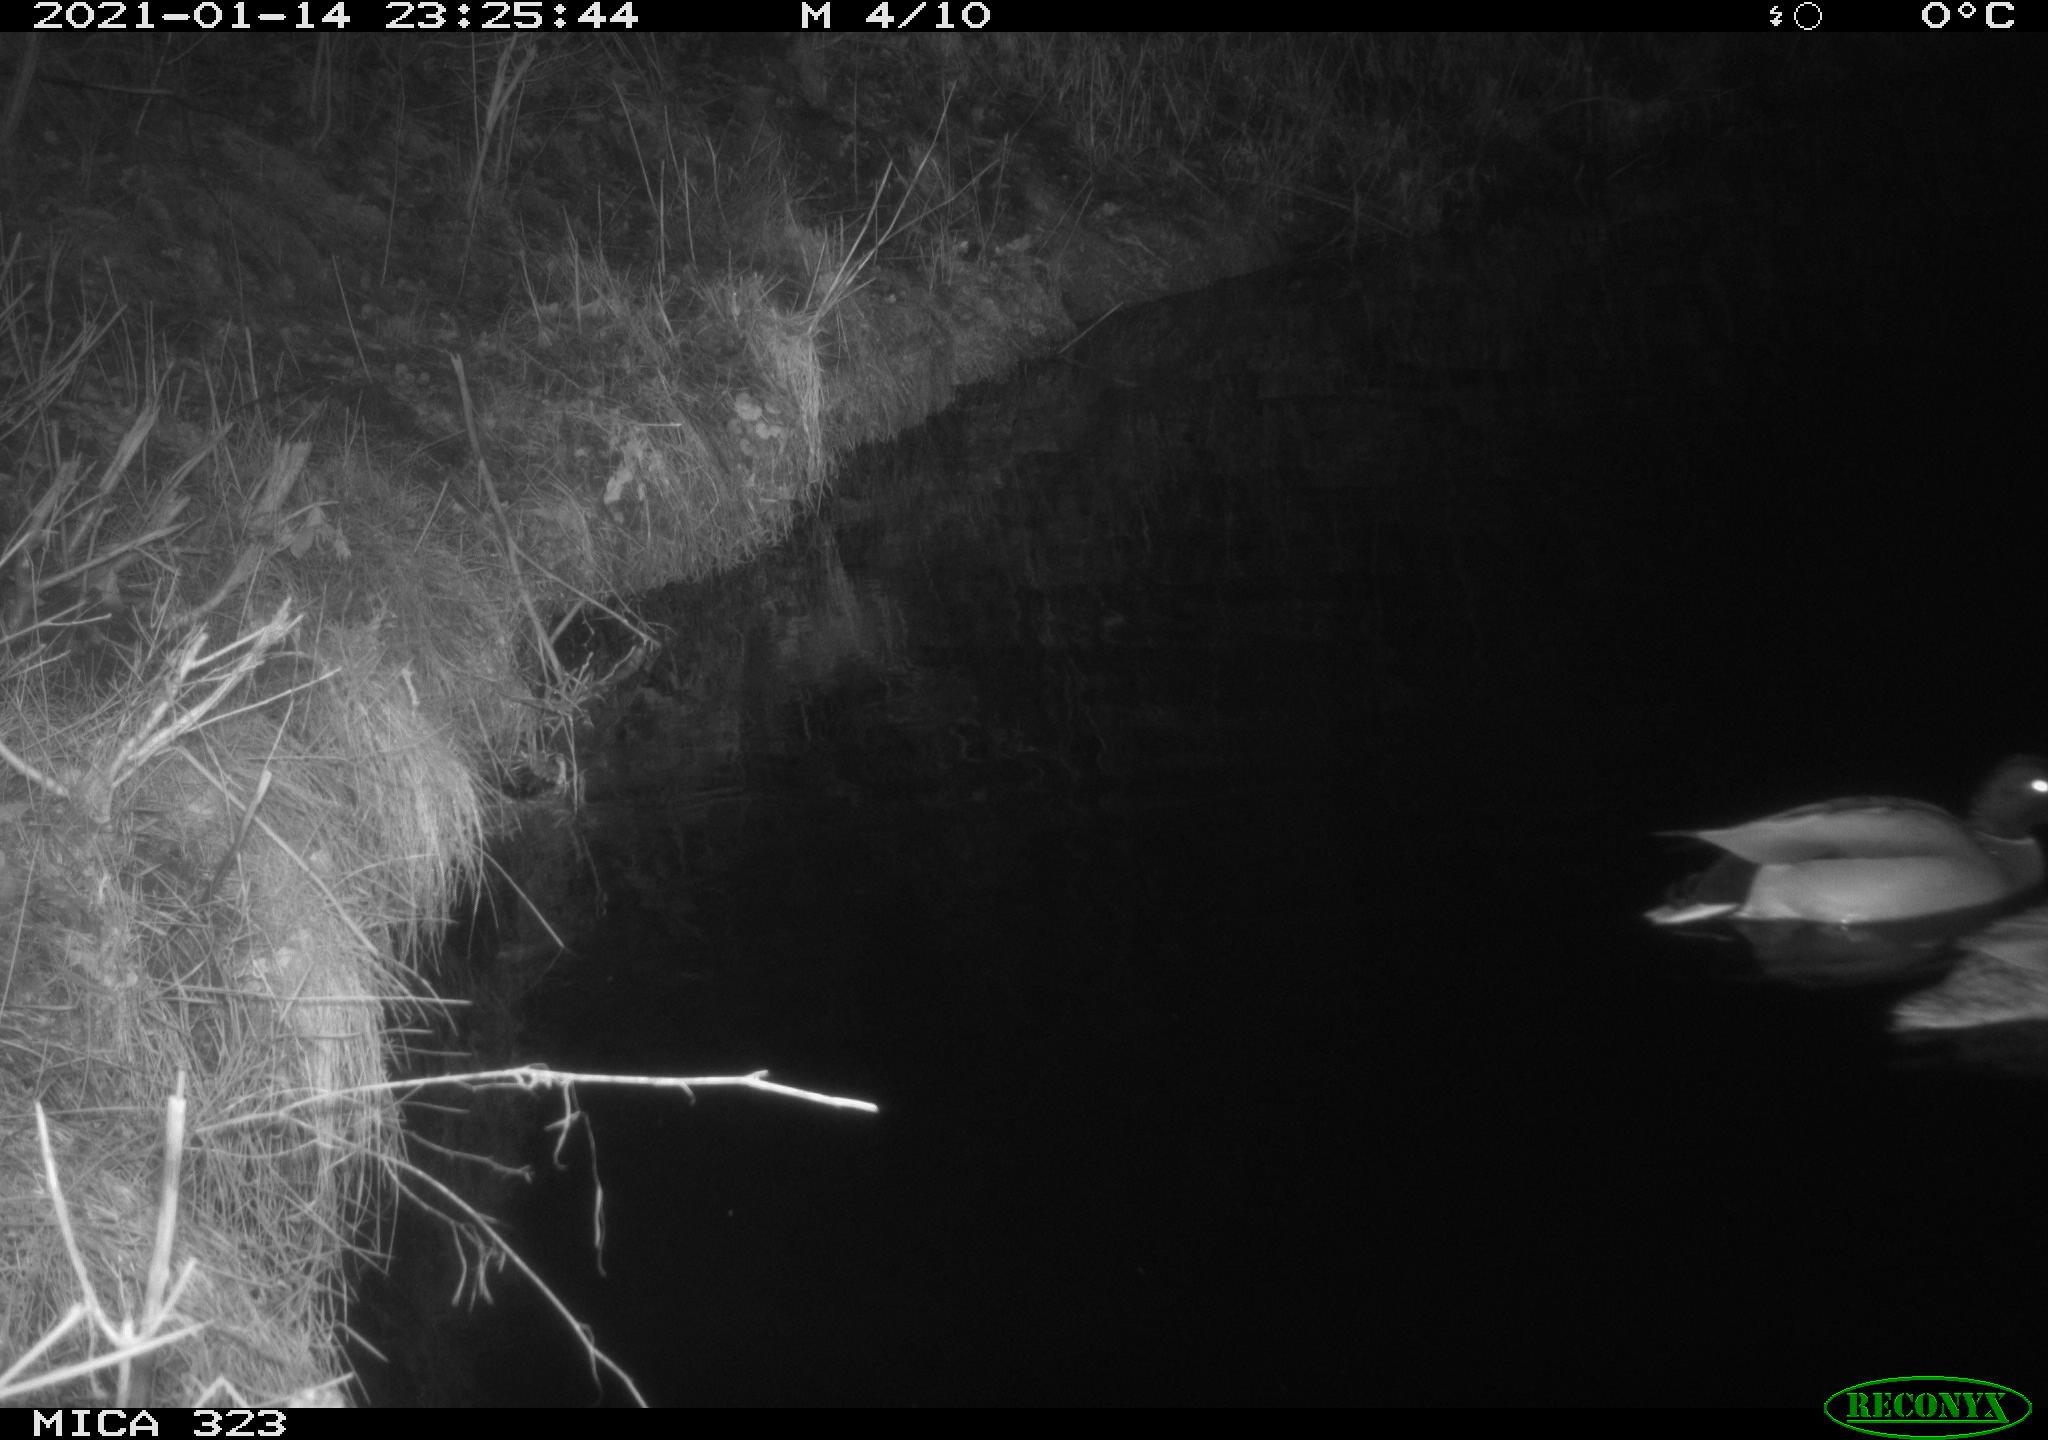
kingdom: Animalia
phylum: Chordata
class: Aves
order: Anseriformes
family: Anatidae
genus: Anas
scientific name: Anas platyrhynchos
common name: Mallard
